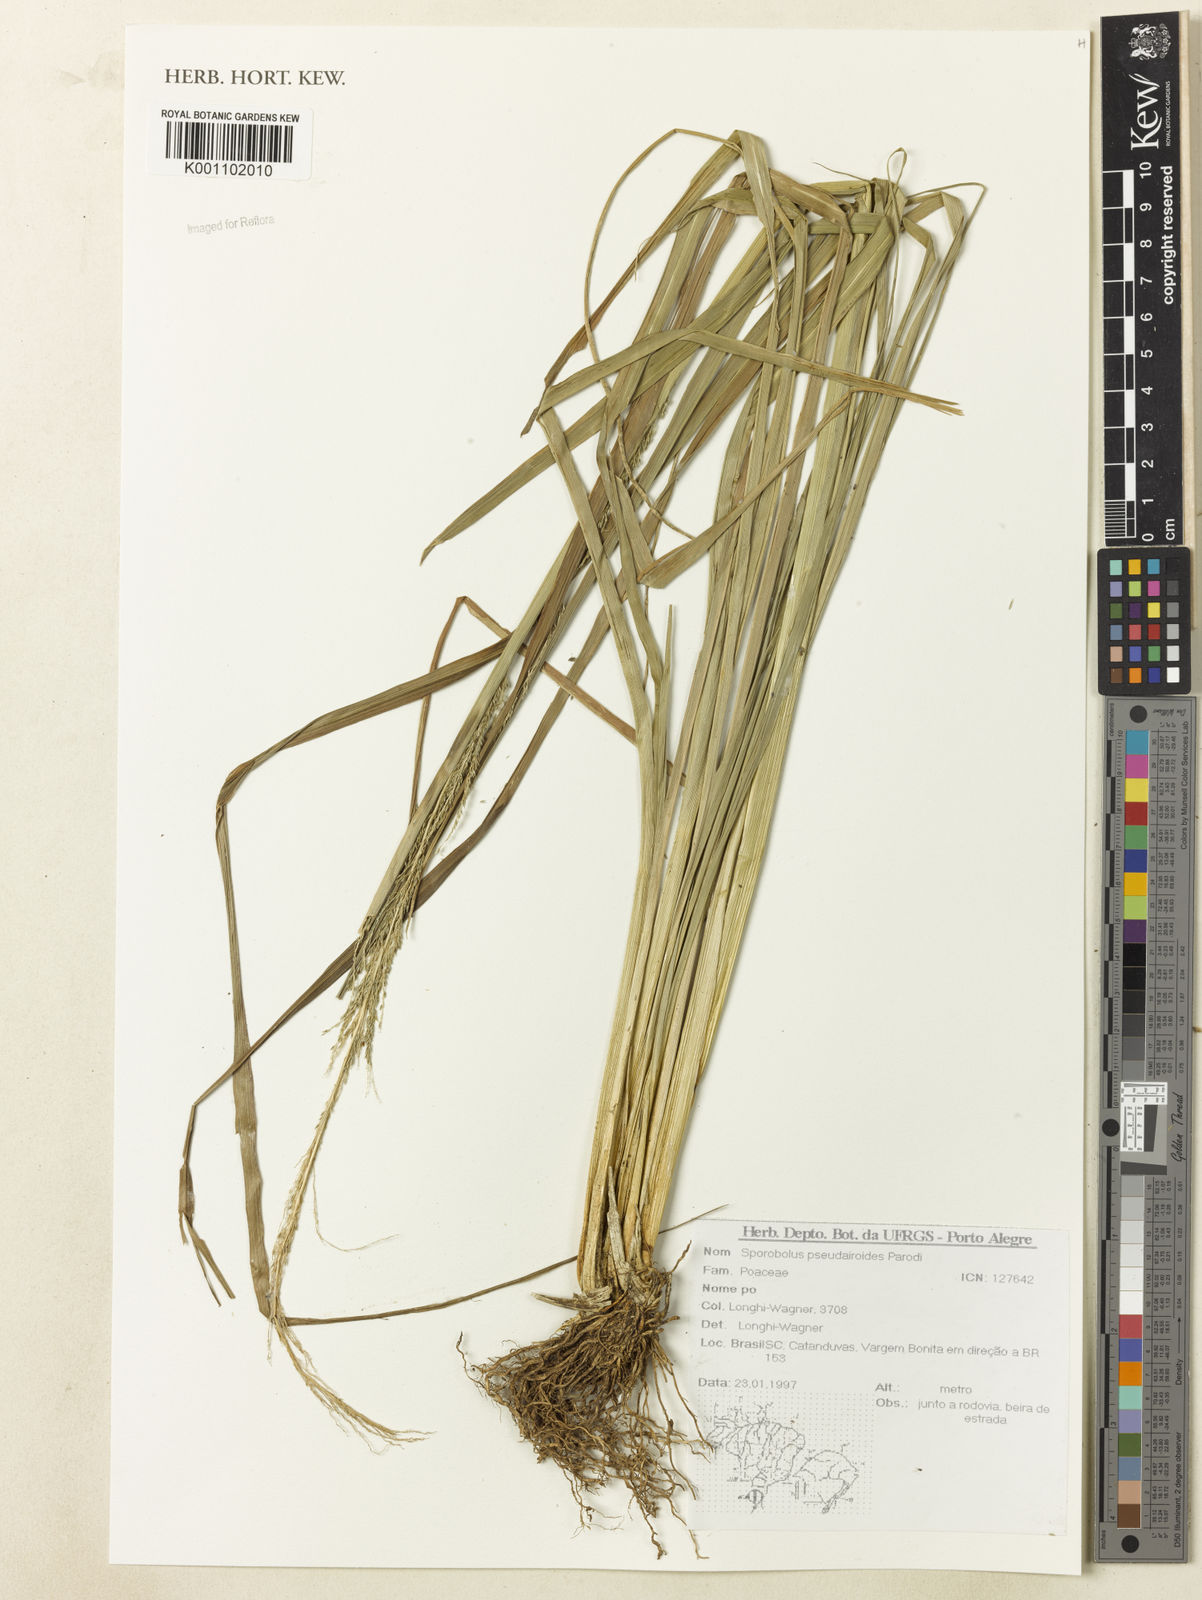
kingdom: Plantae
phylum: Tracheophyta
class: Liliopsida
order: Poales
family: Poaceae
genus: Sporobolus
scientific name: Sporobolus pseudairoides
